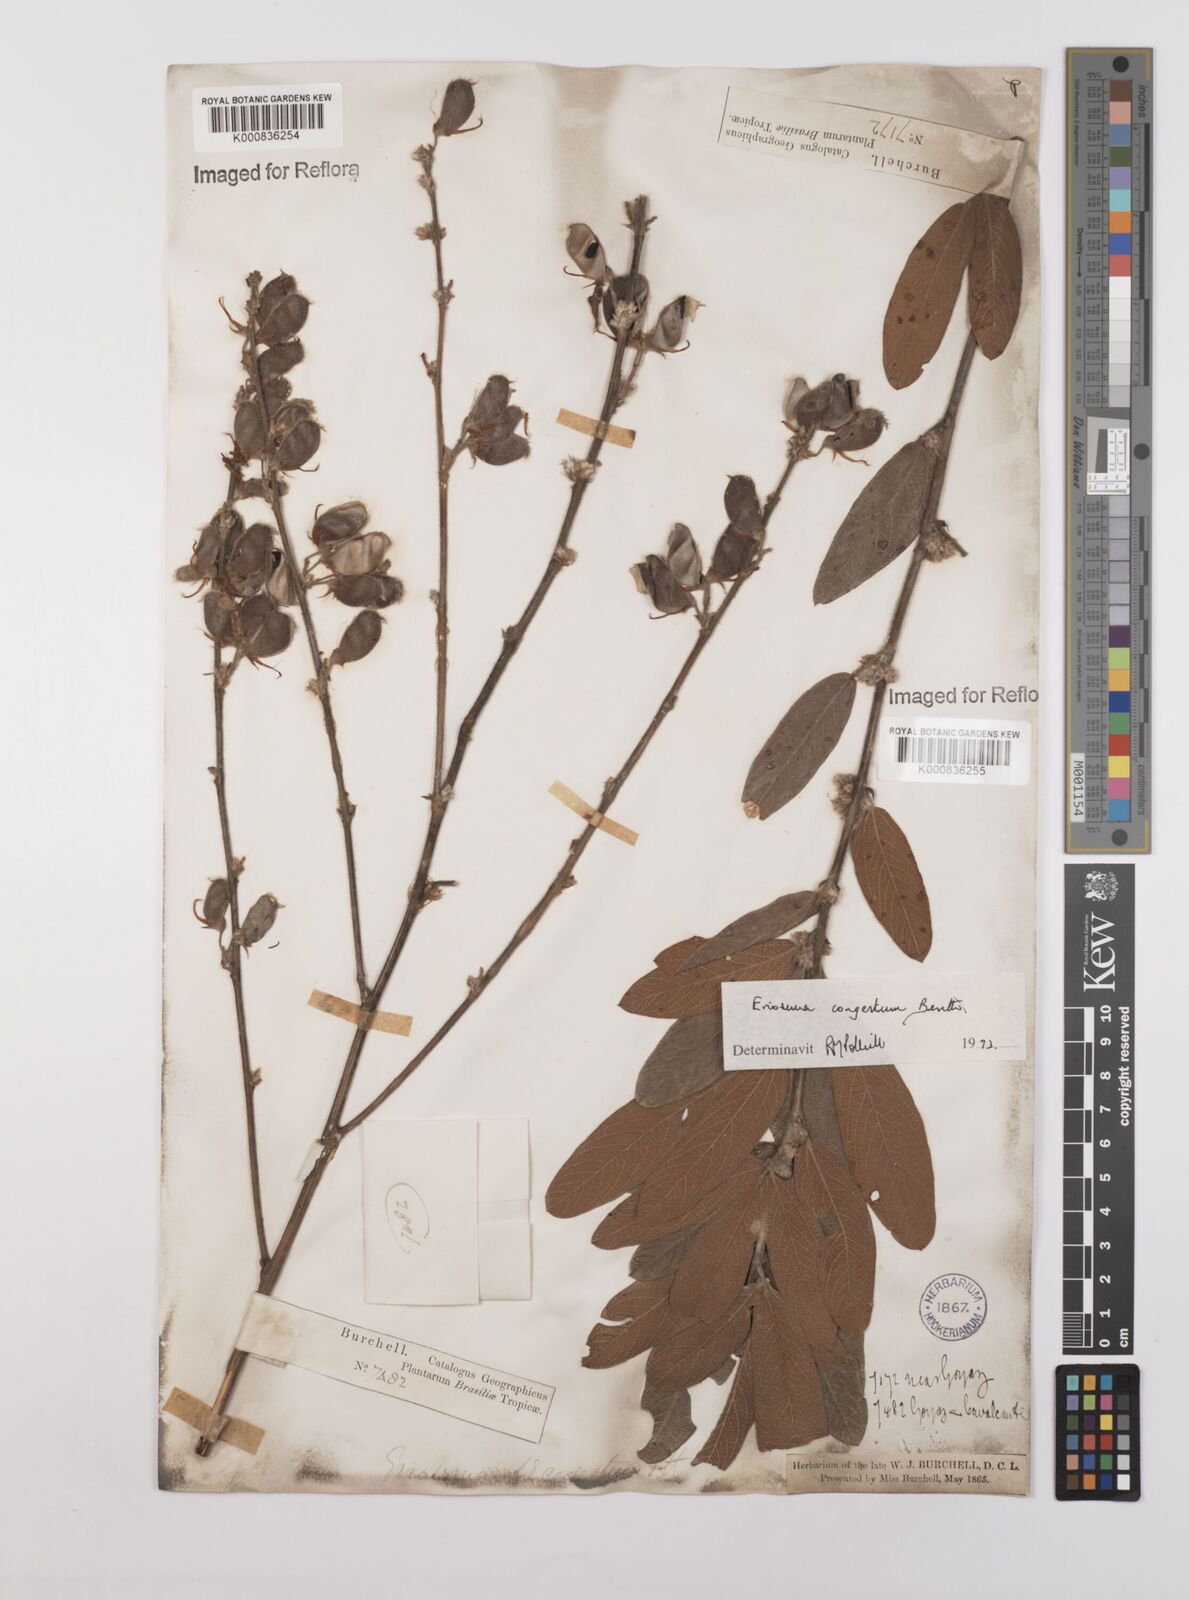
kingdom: Plantae
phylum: Tracheophyta
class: Magnoliopsida
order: Fabales
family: Fabaceae
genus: Eriosema
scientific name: Eriosema congestum
